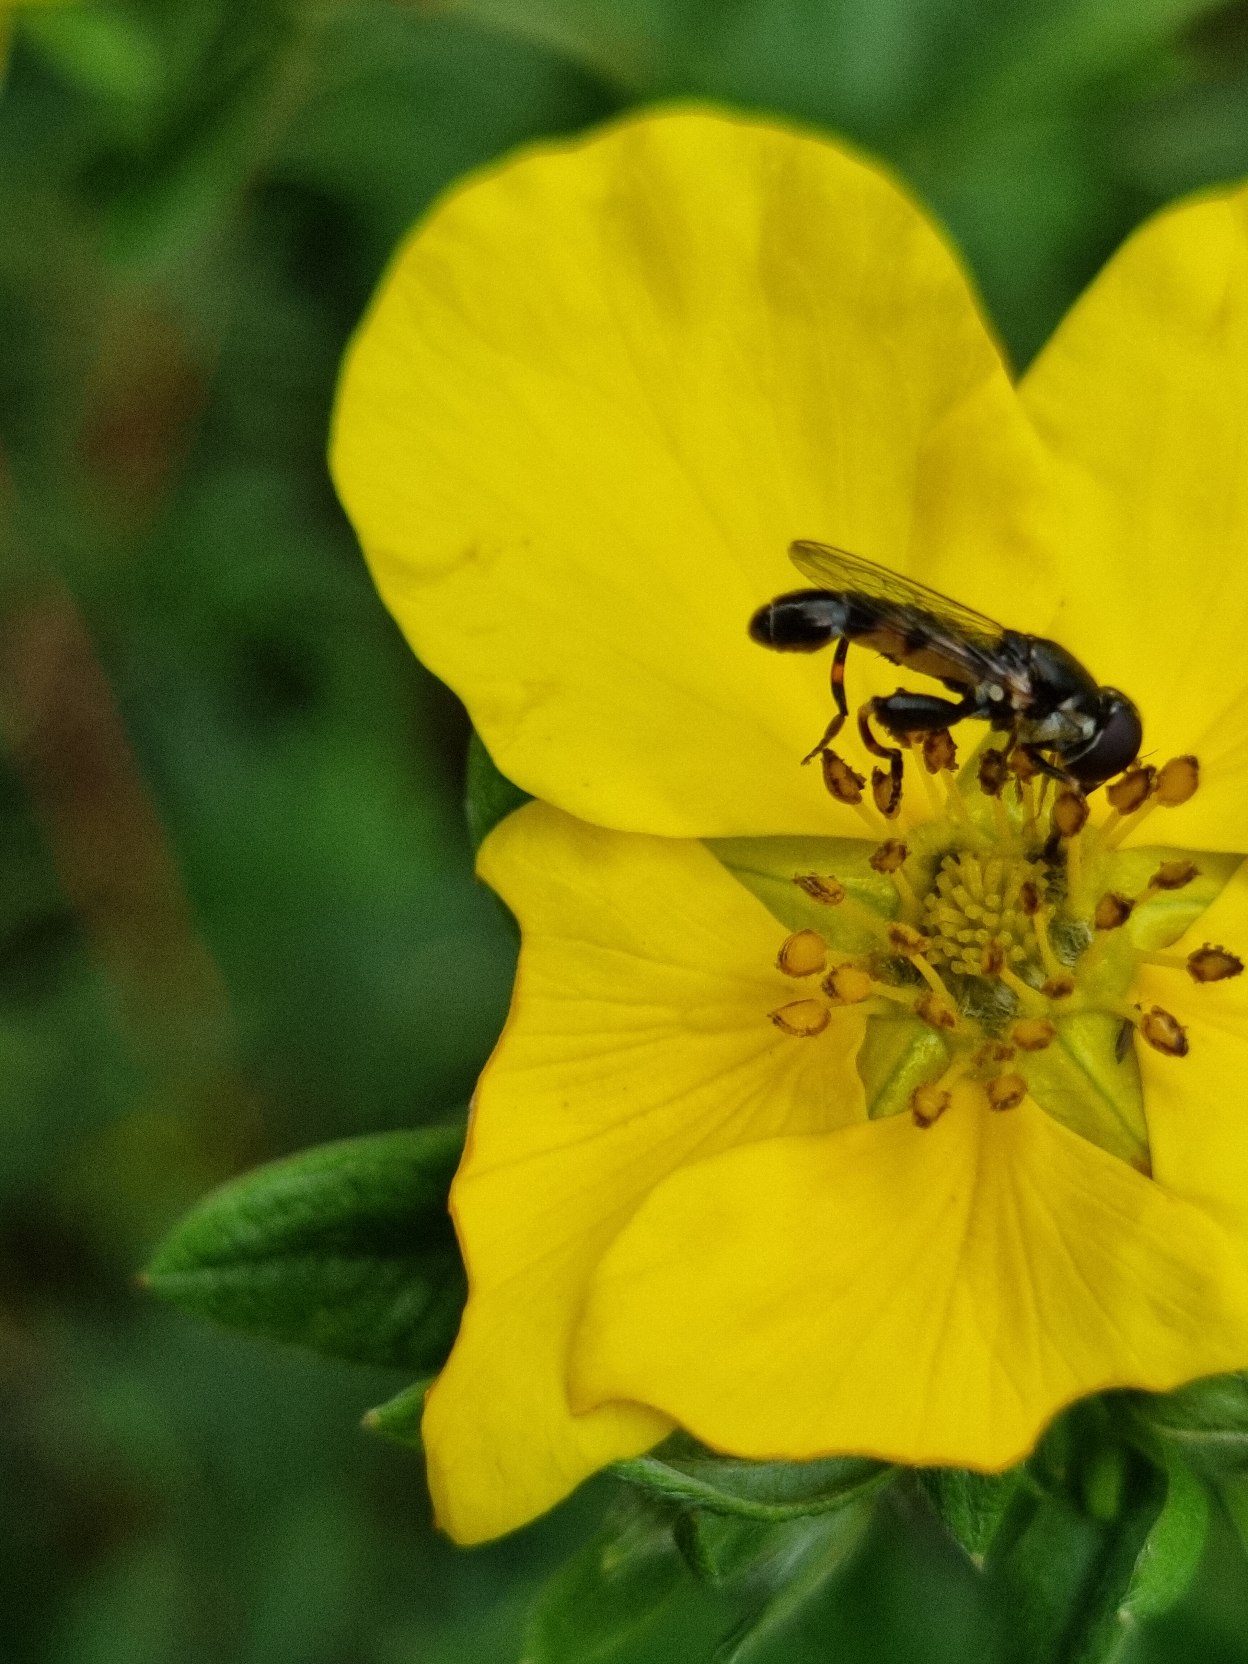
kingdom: Animalia
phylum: Arthropoda
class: Insecta
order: Diptera
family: Syrphidae
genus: Syritta
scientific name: Syritta pipiens
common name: Kompost-svirreflue
